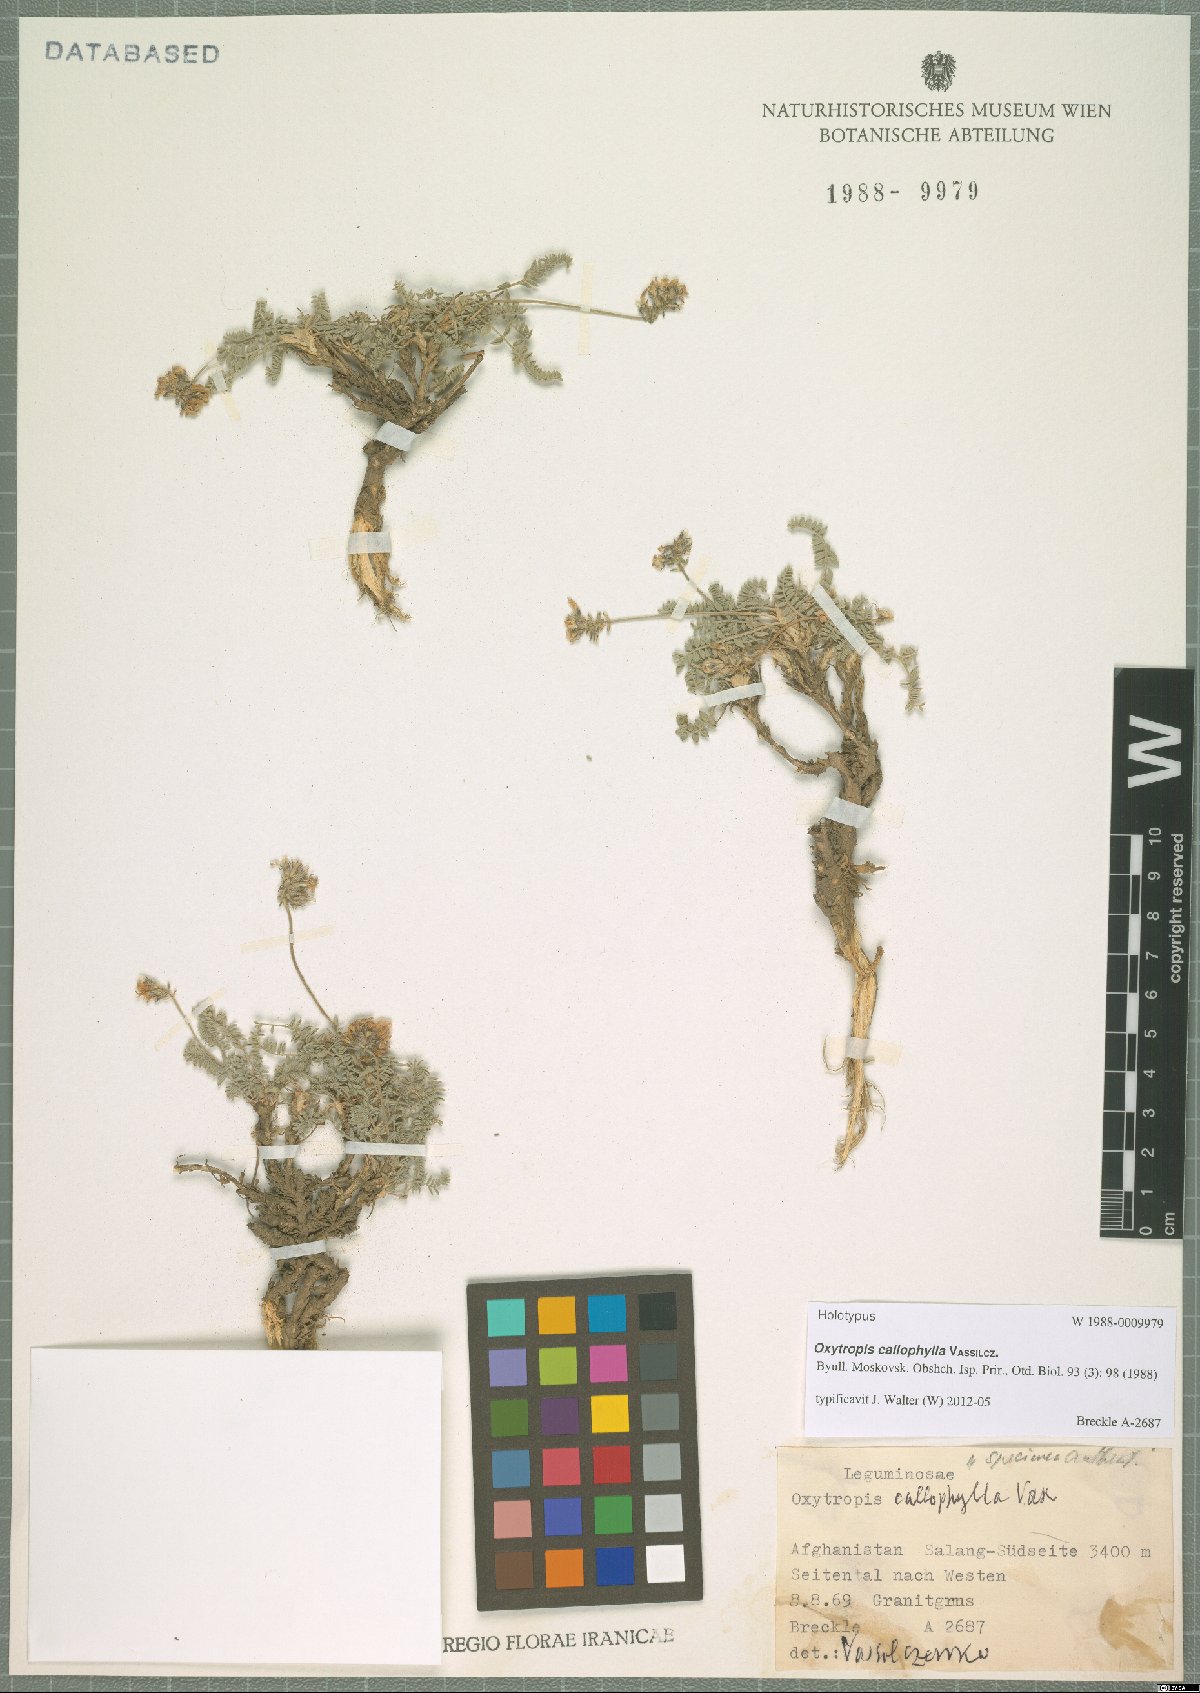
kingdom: Plantae
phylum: Tracheophyta
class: Magnoliopsida
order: Fabales
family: Fabaceae
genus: Oxytropis
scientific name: Oxytropis callophylla
